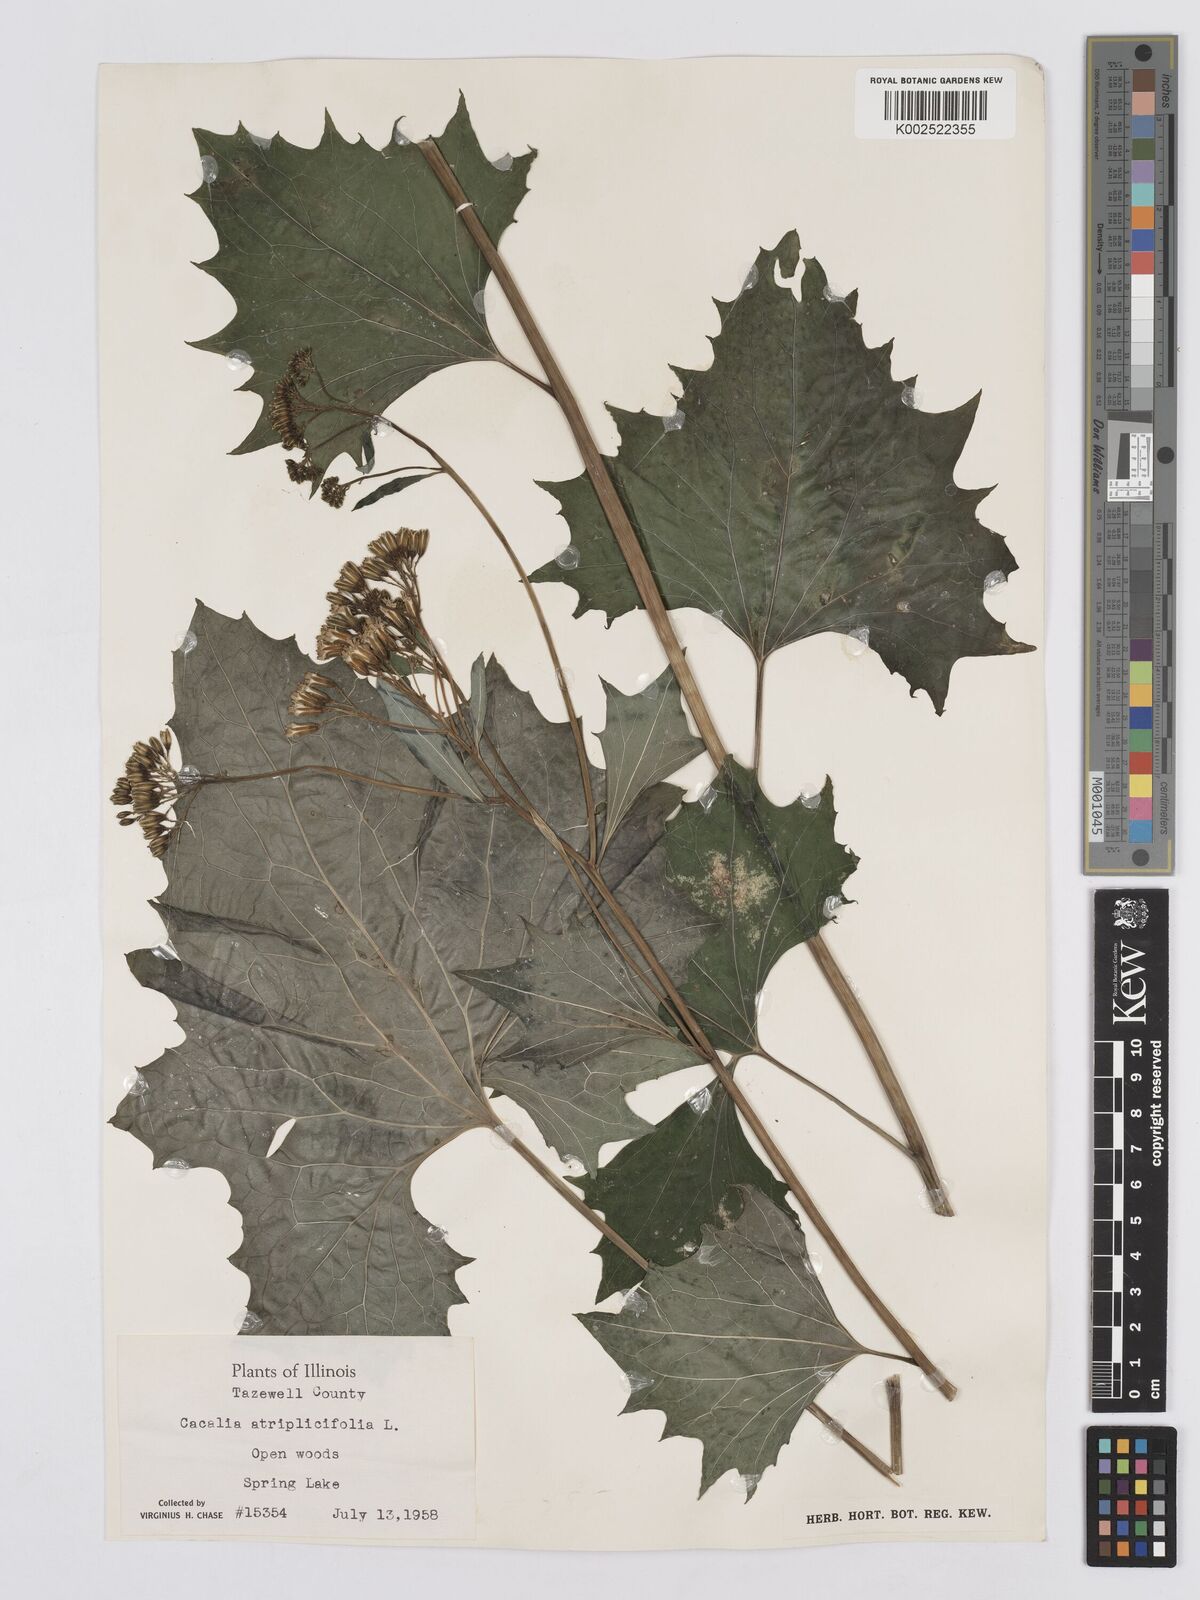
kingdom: Plantae
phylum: Tracheophyta
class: Magnoliopsida
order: Asterales
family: Asteraceae
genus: Arnoglossum
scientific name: Arnoglossum atriplicifolium
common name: Pale indian-plantain
